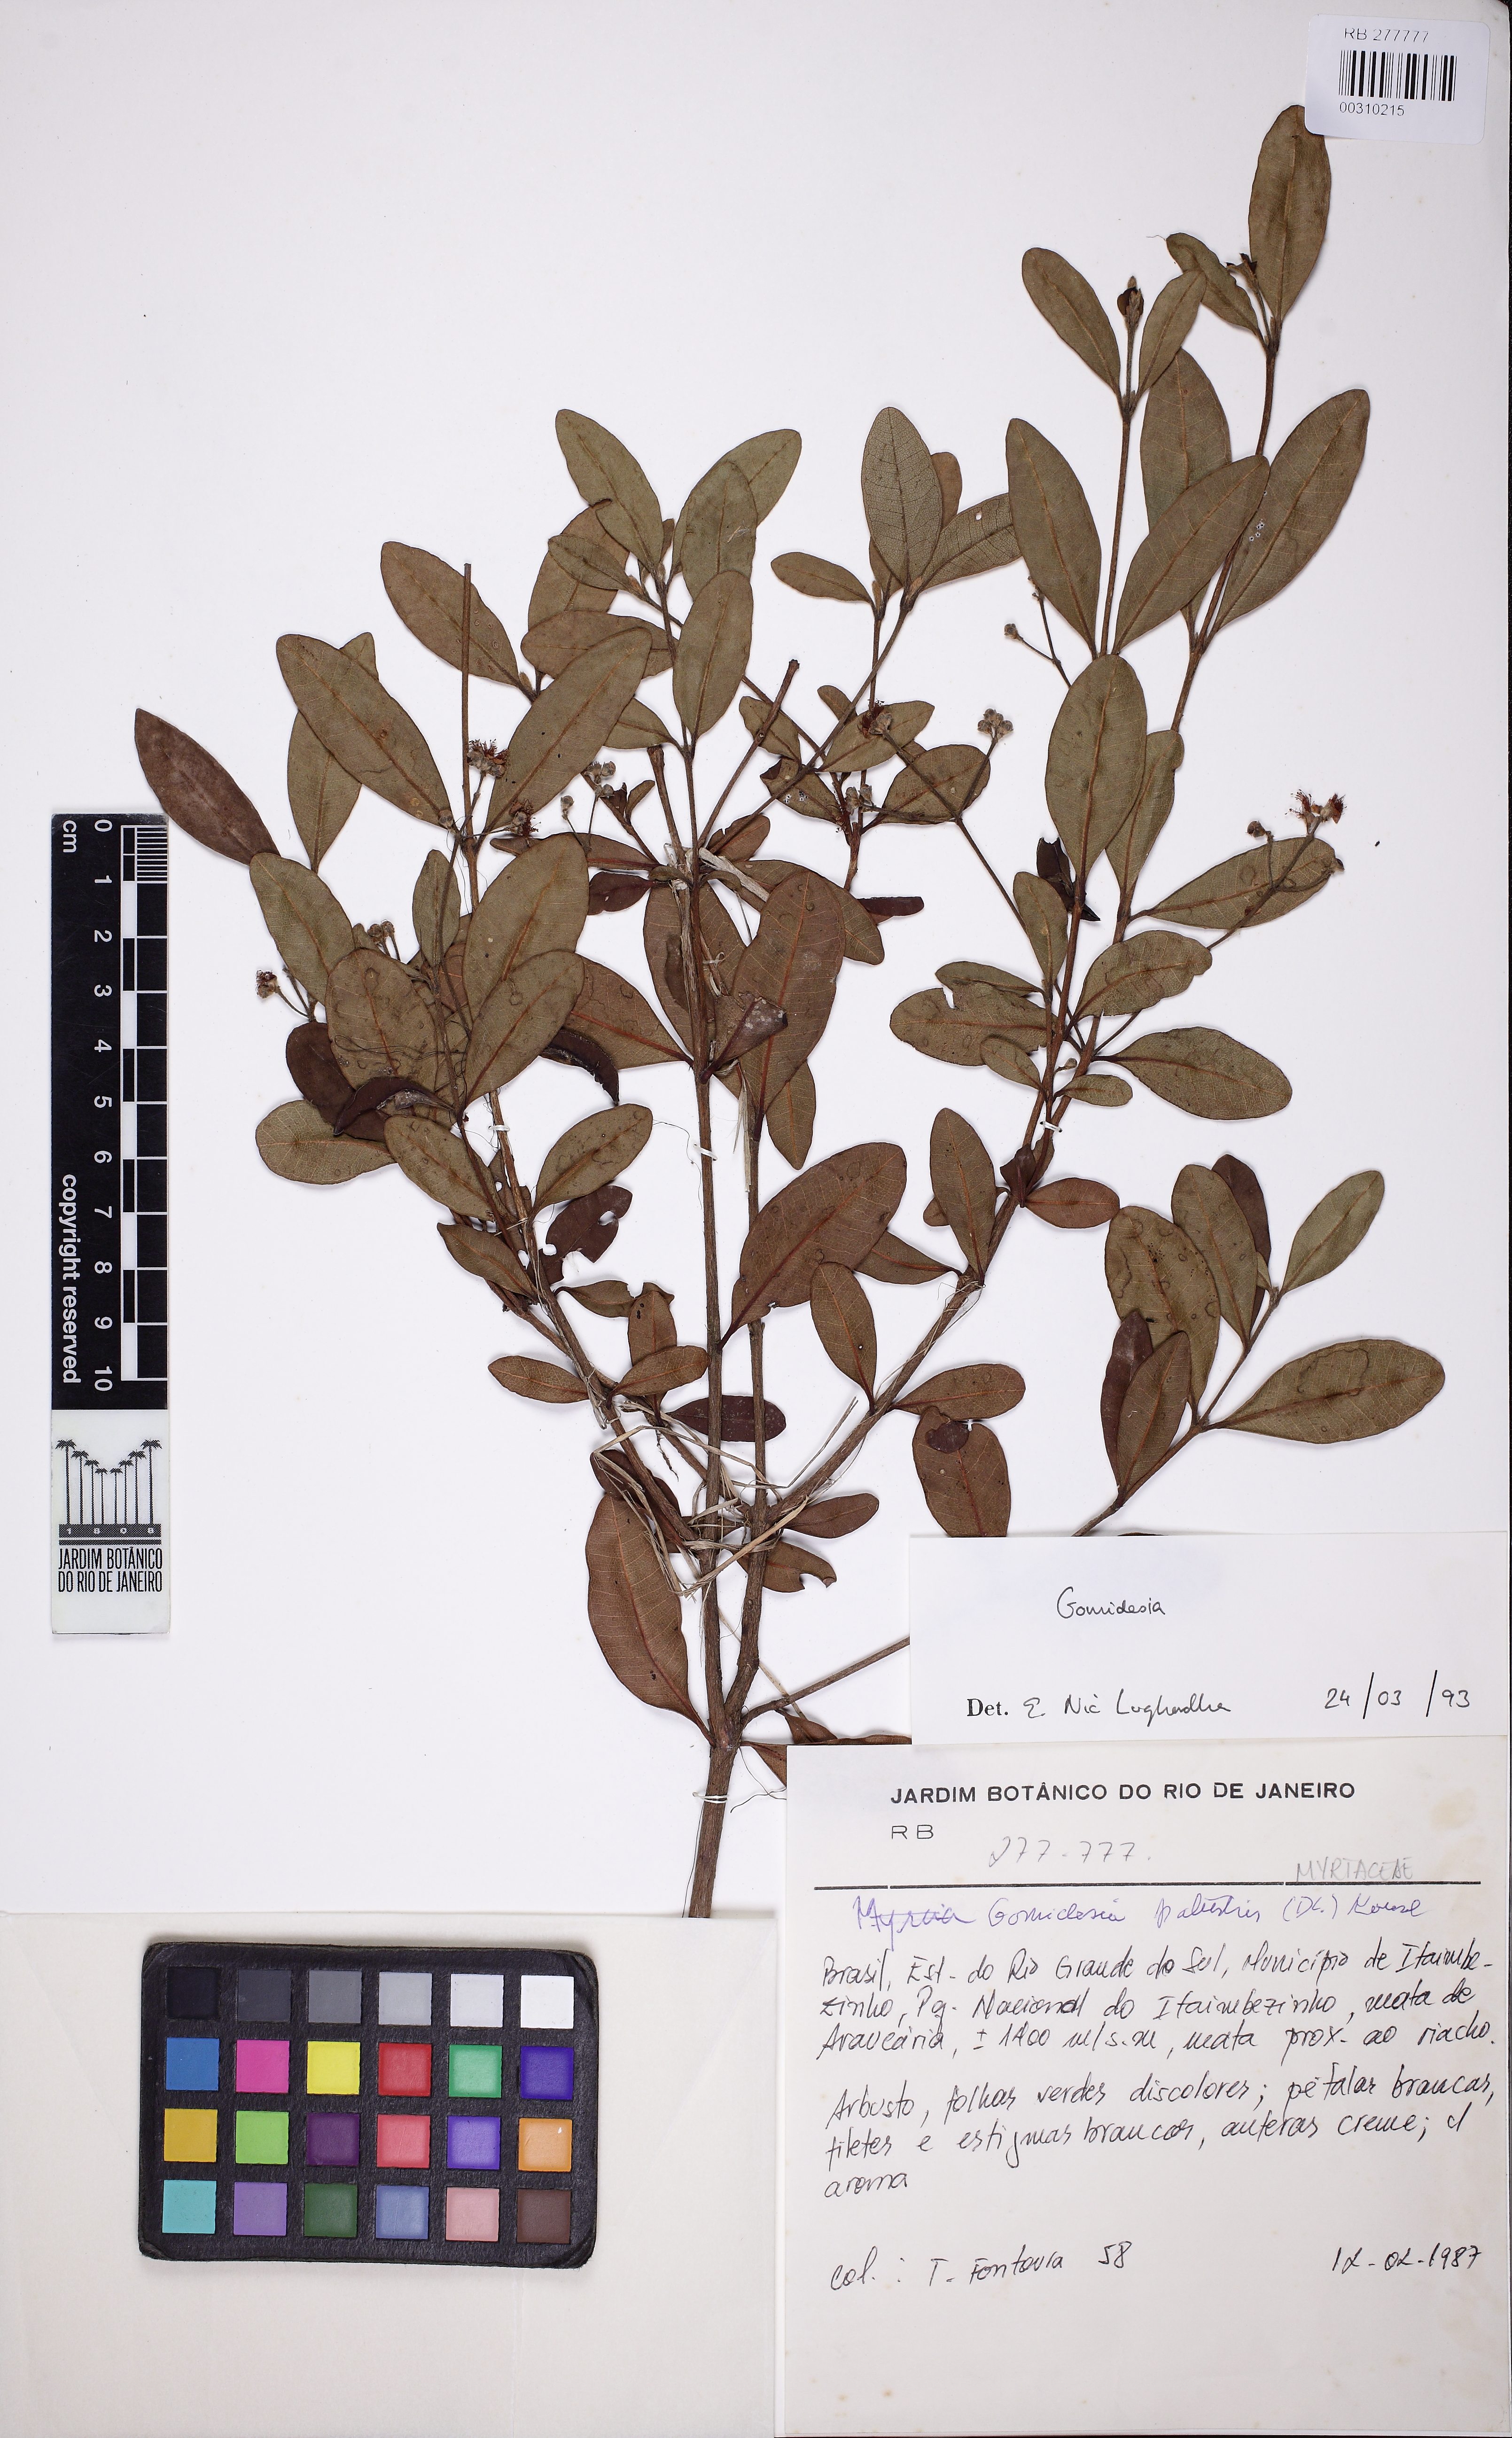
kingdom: Plantae
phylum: Tracheophyta
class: Magnoliopsida
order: Myrtales
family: Myrtaceae
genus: Myrcia
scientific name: Myrcia
